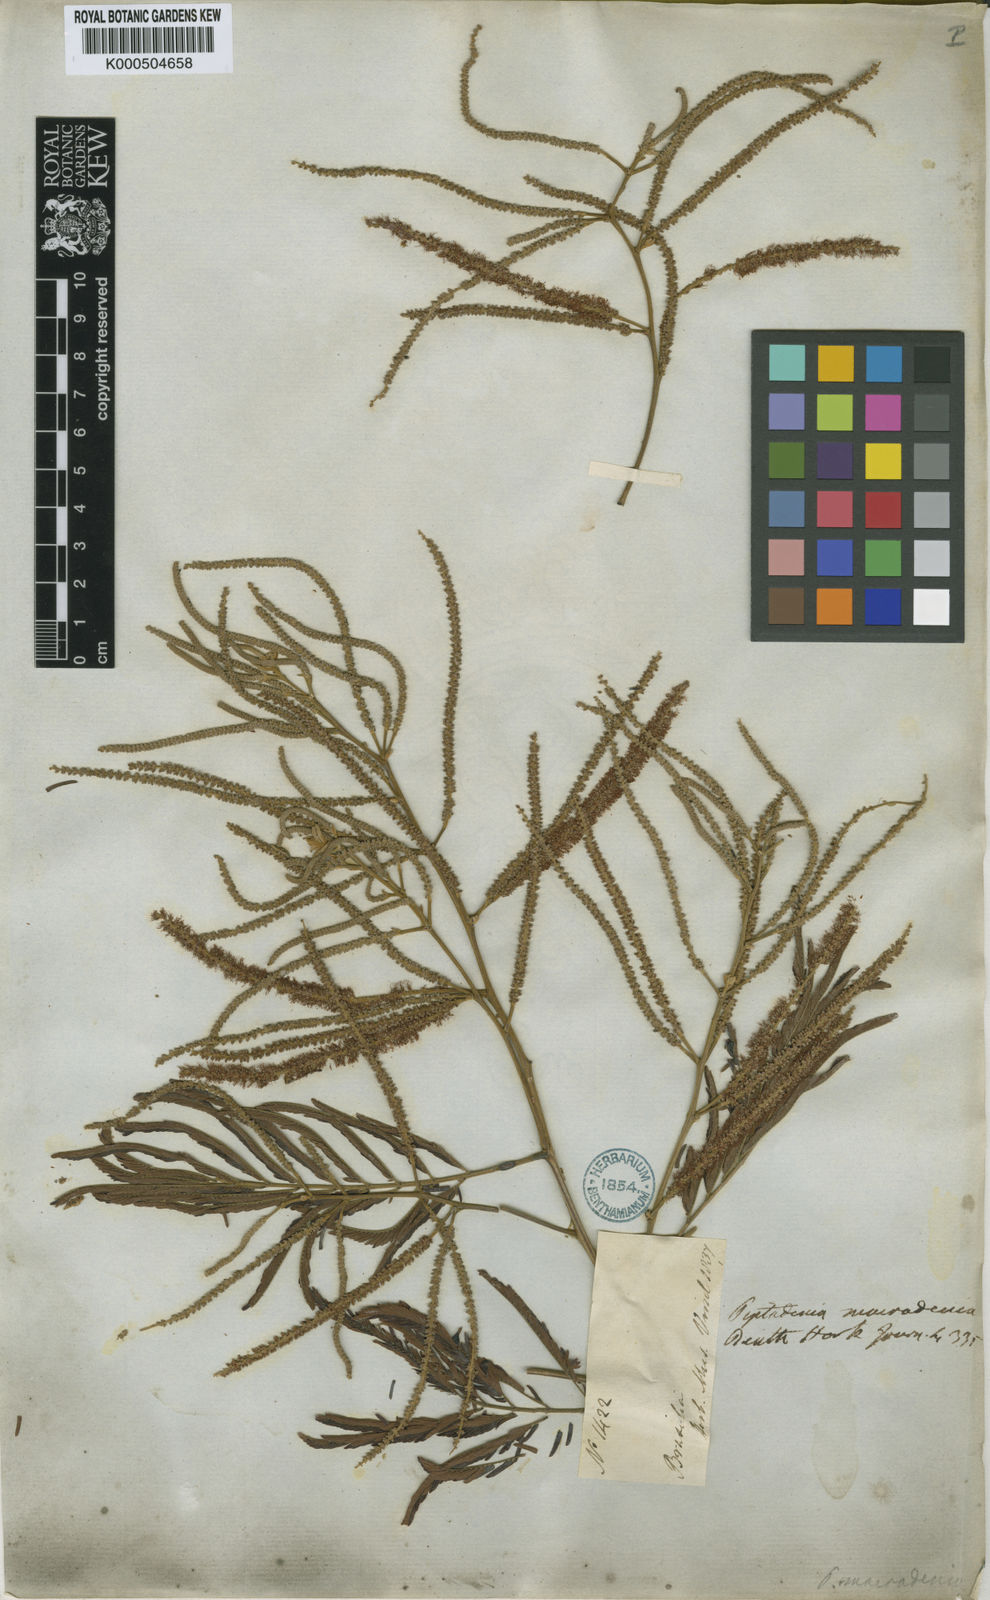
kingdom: Plantae
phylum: Tracheophyta
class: Magnoliopsida
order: Fabales
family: Fabaceae
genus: Piptadenia
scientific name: Piptadenia macradenia
